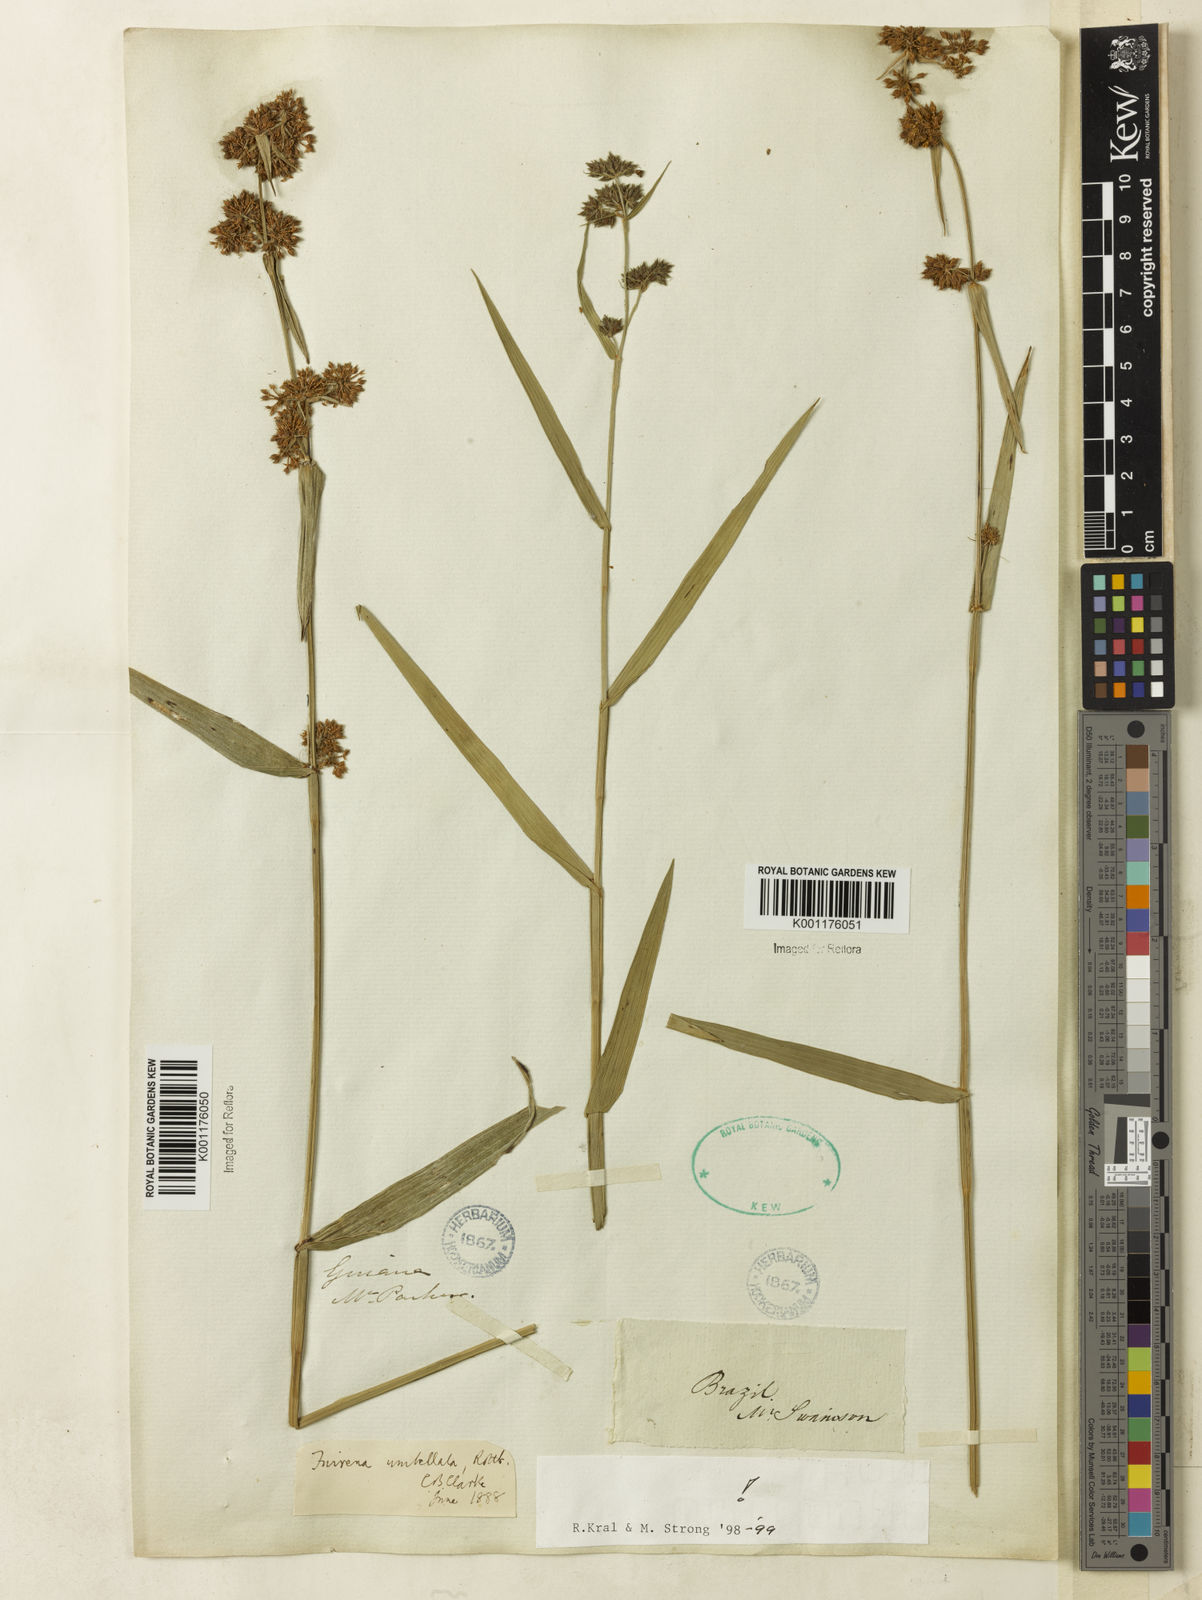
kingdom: Plantae
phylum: Tracheophyta
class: Liliopsida
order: Poales
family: Cyperaceae
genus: Fuirena
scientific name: Fuirena umbellata
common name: Yefen
